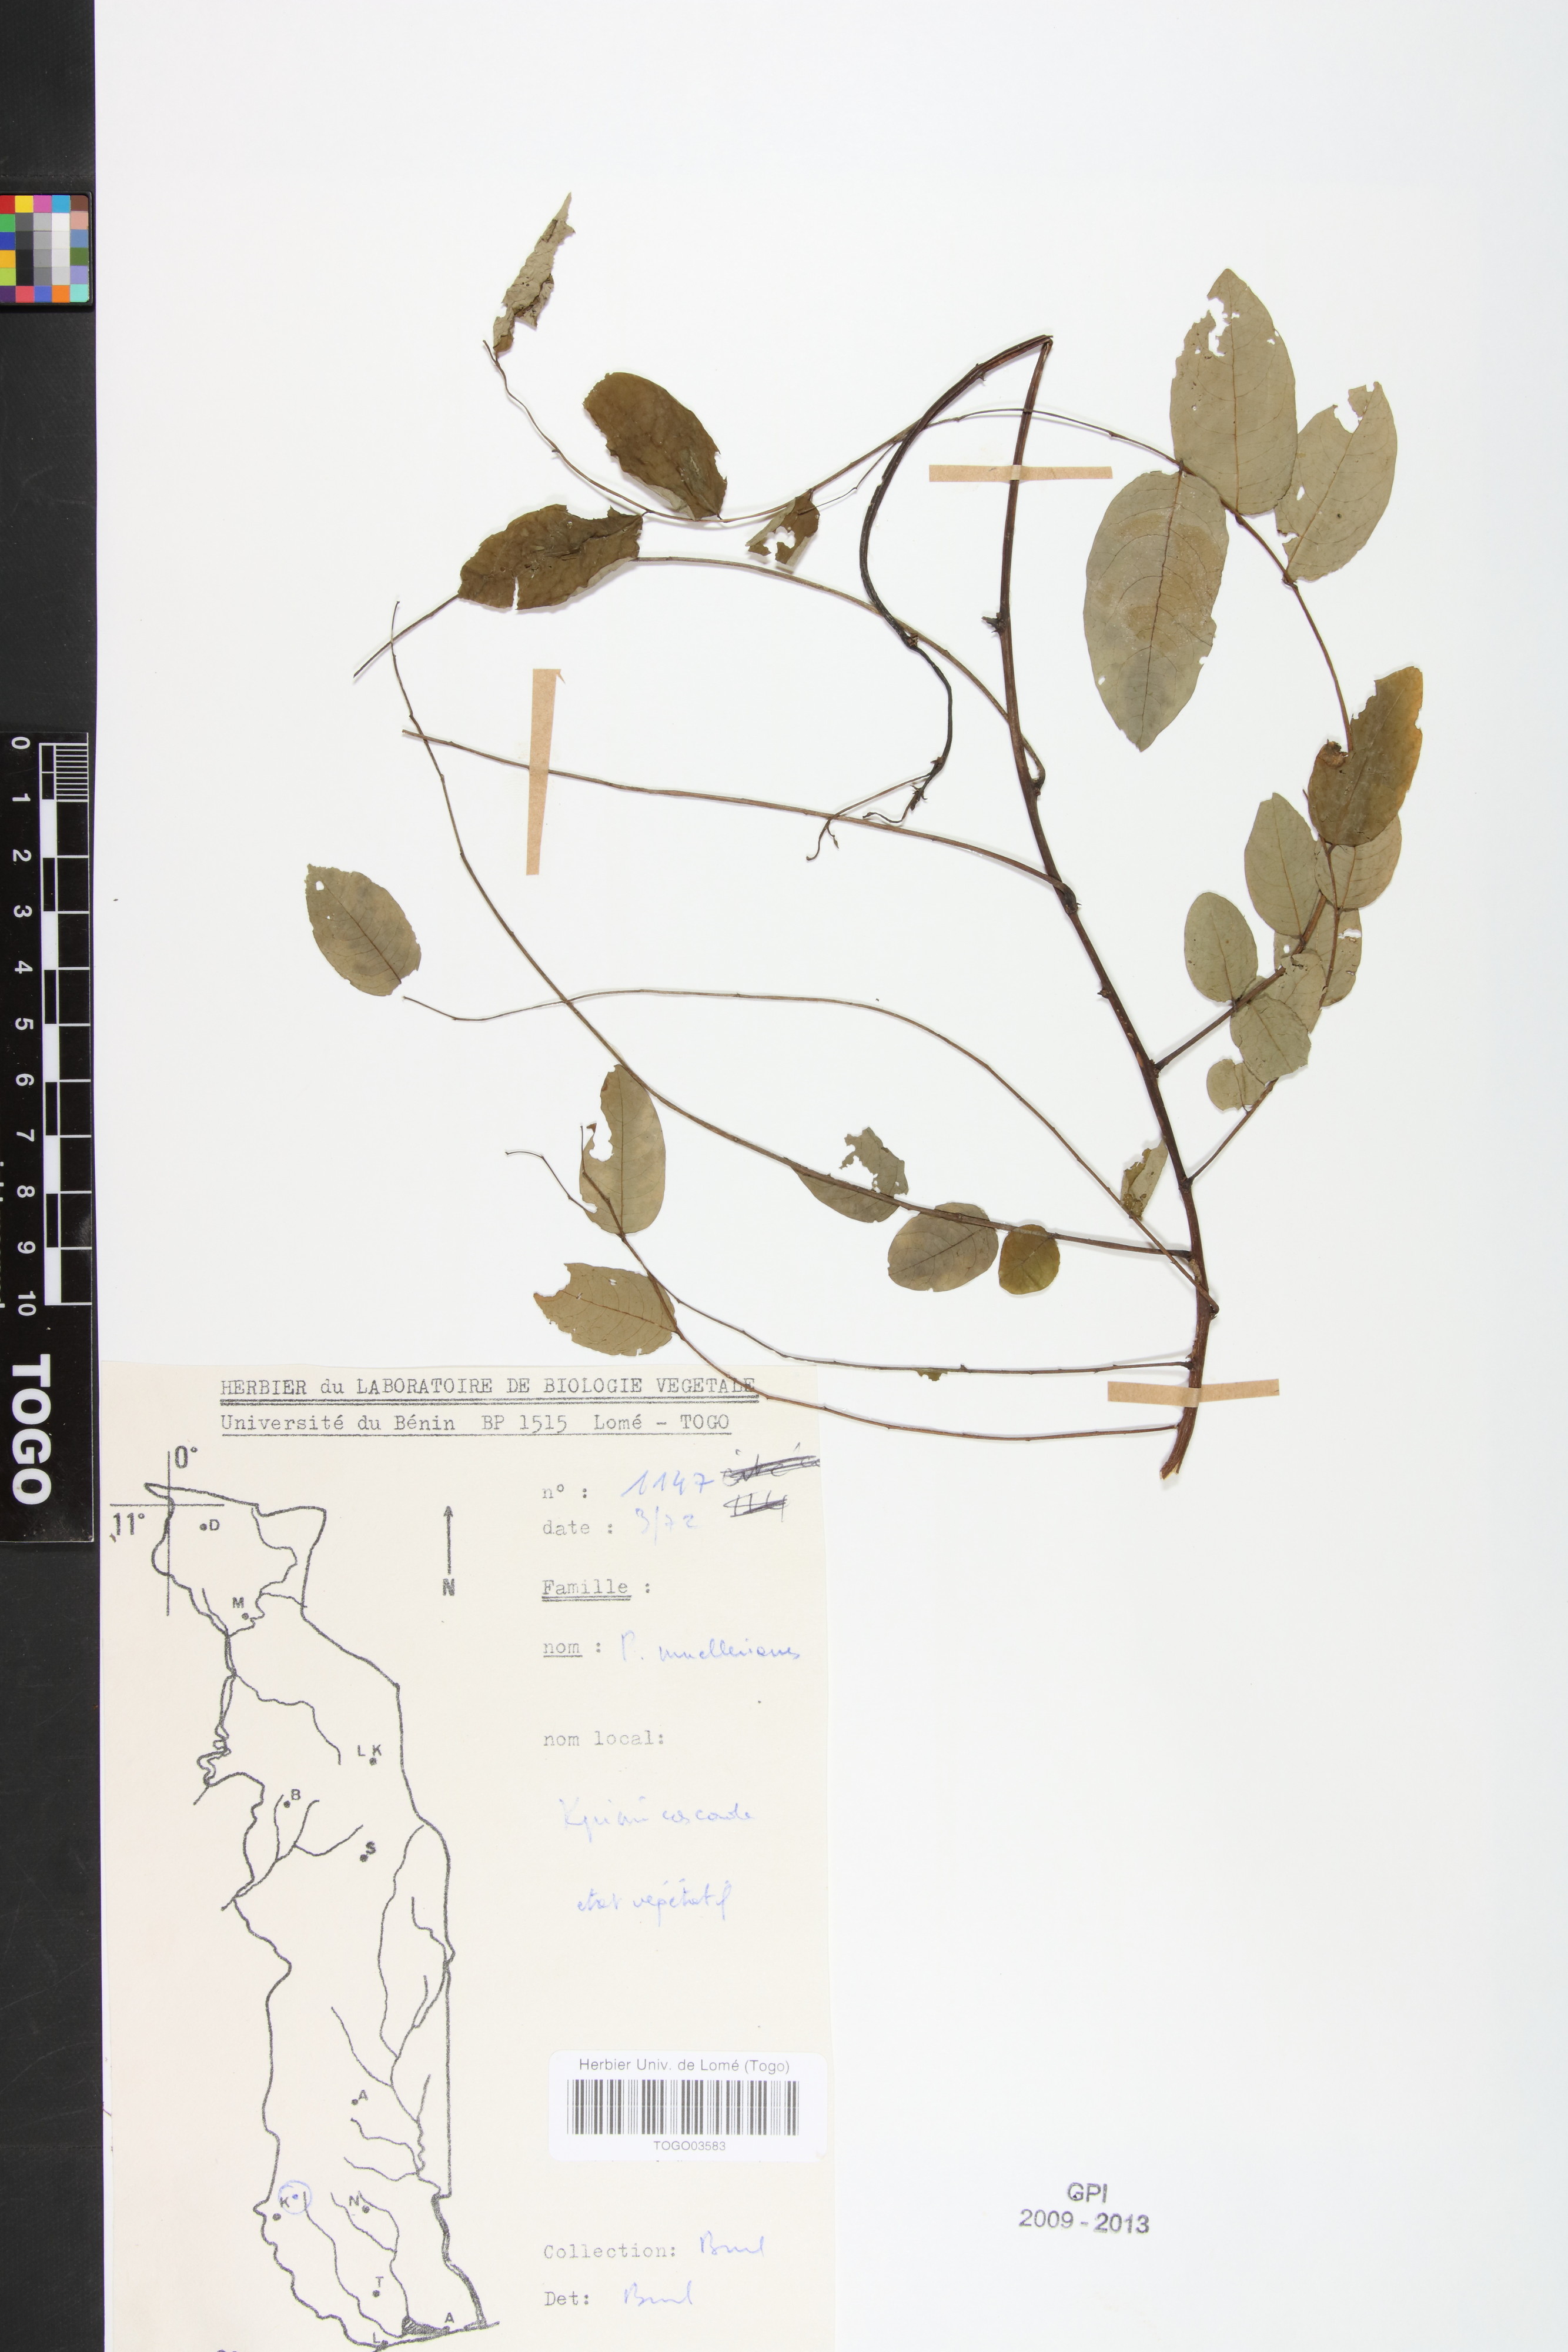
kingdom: Plantae
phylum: Tracheophyta
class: Magnoliopsida
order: Malpighiales
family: Phyllanthaceae
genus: Phyllanthus
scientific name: Phyllanthus muellerianus
